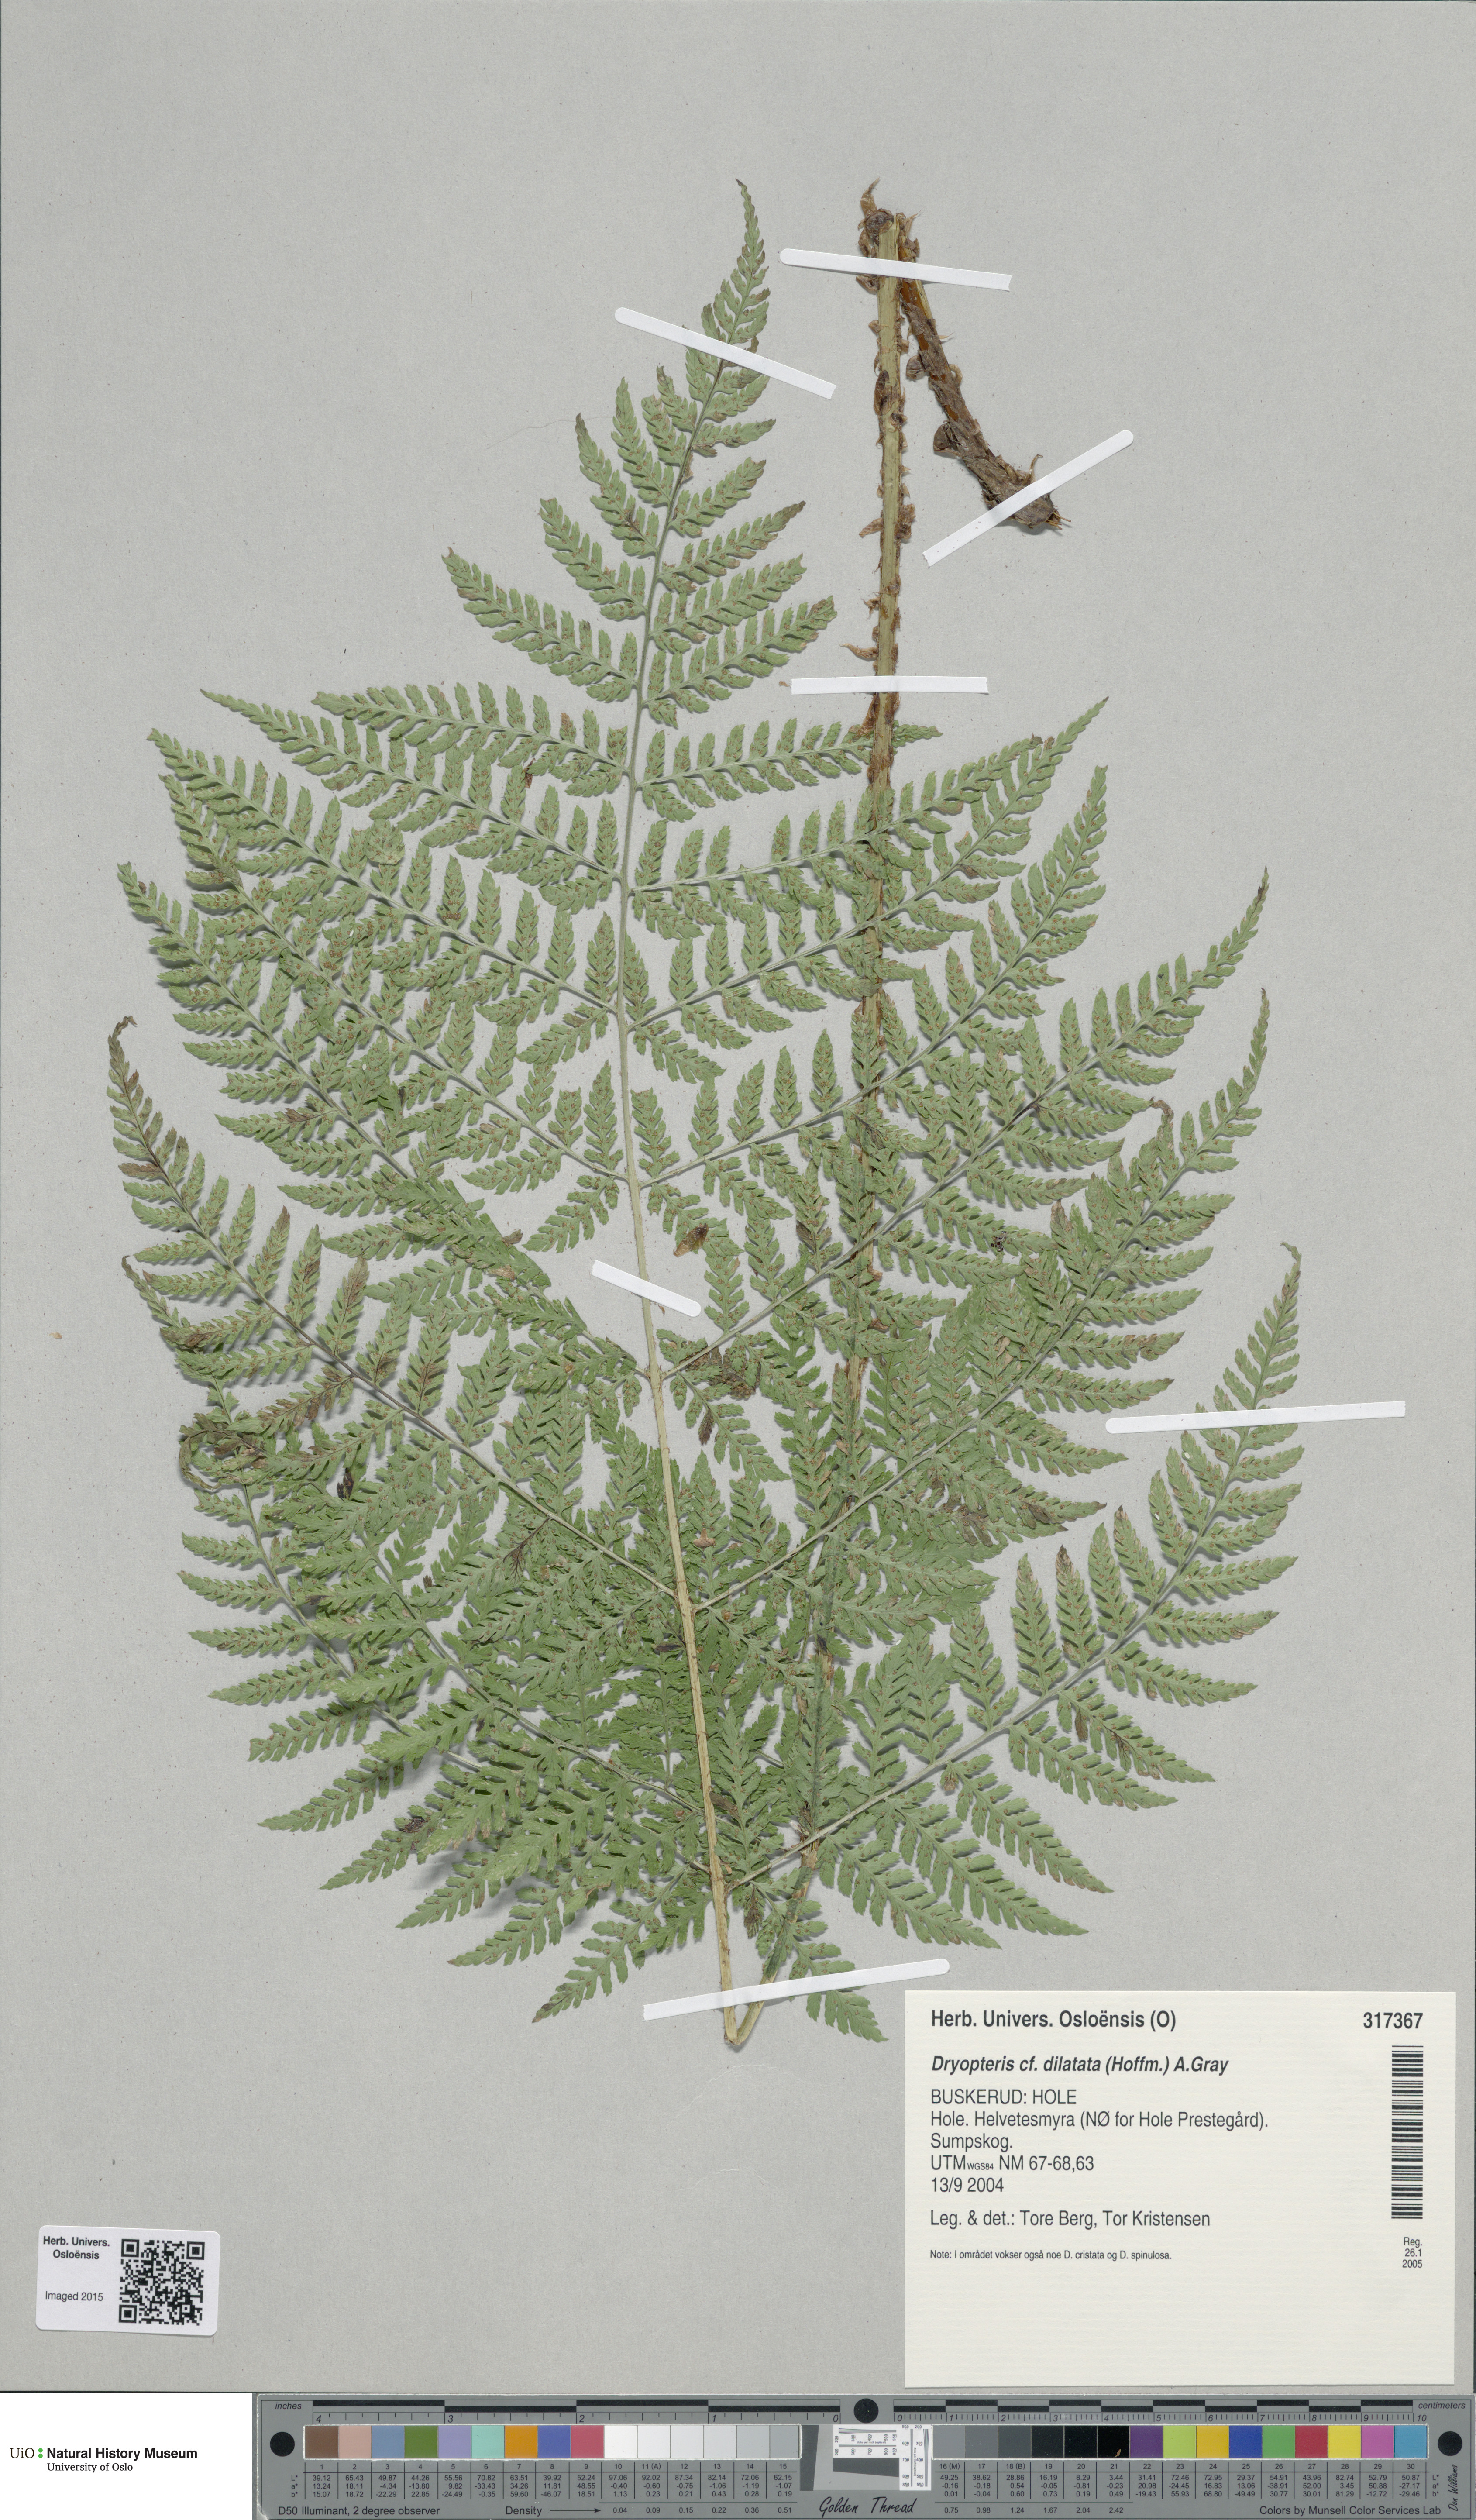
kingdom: Plantae
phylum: Tracheophyta
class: Polypodiopsida
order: Polypodiales
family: Dryopteridaceae
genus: Dryopteris
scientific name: Dryopteris dilatata
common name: Broad buckler-fern
